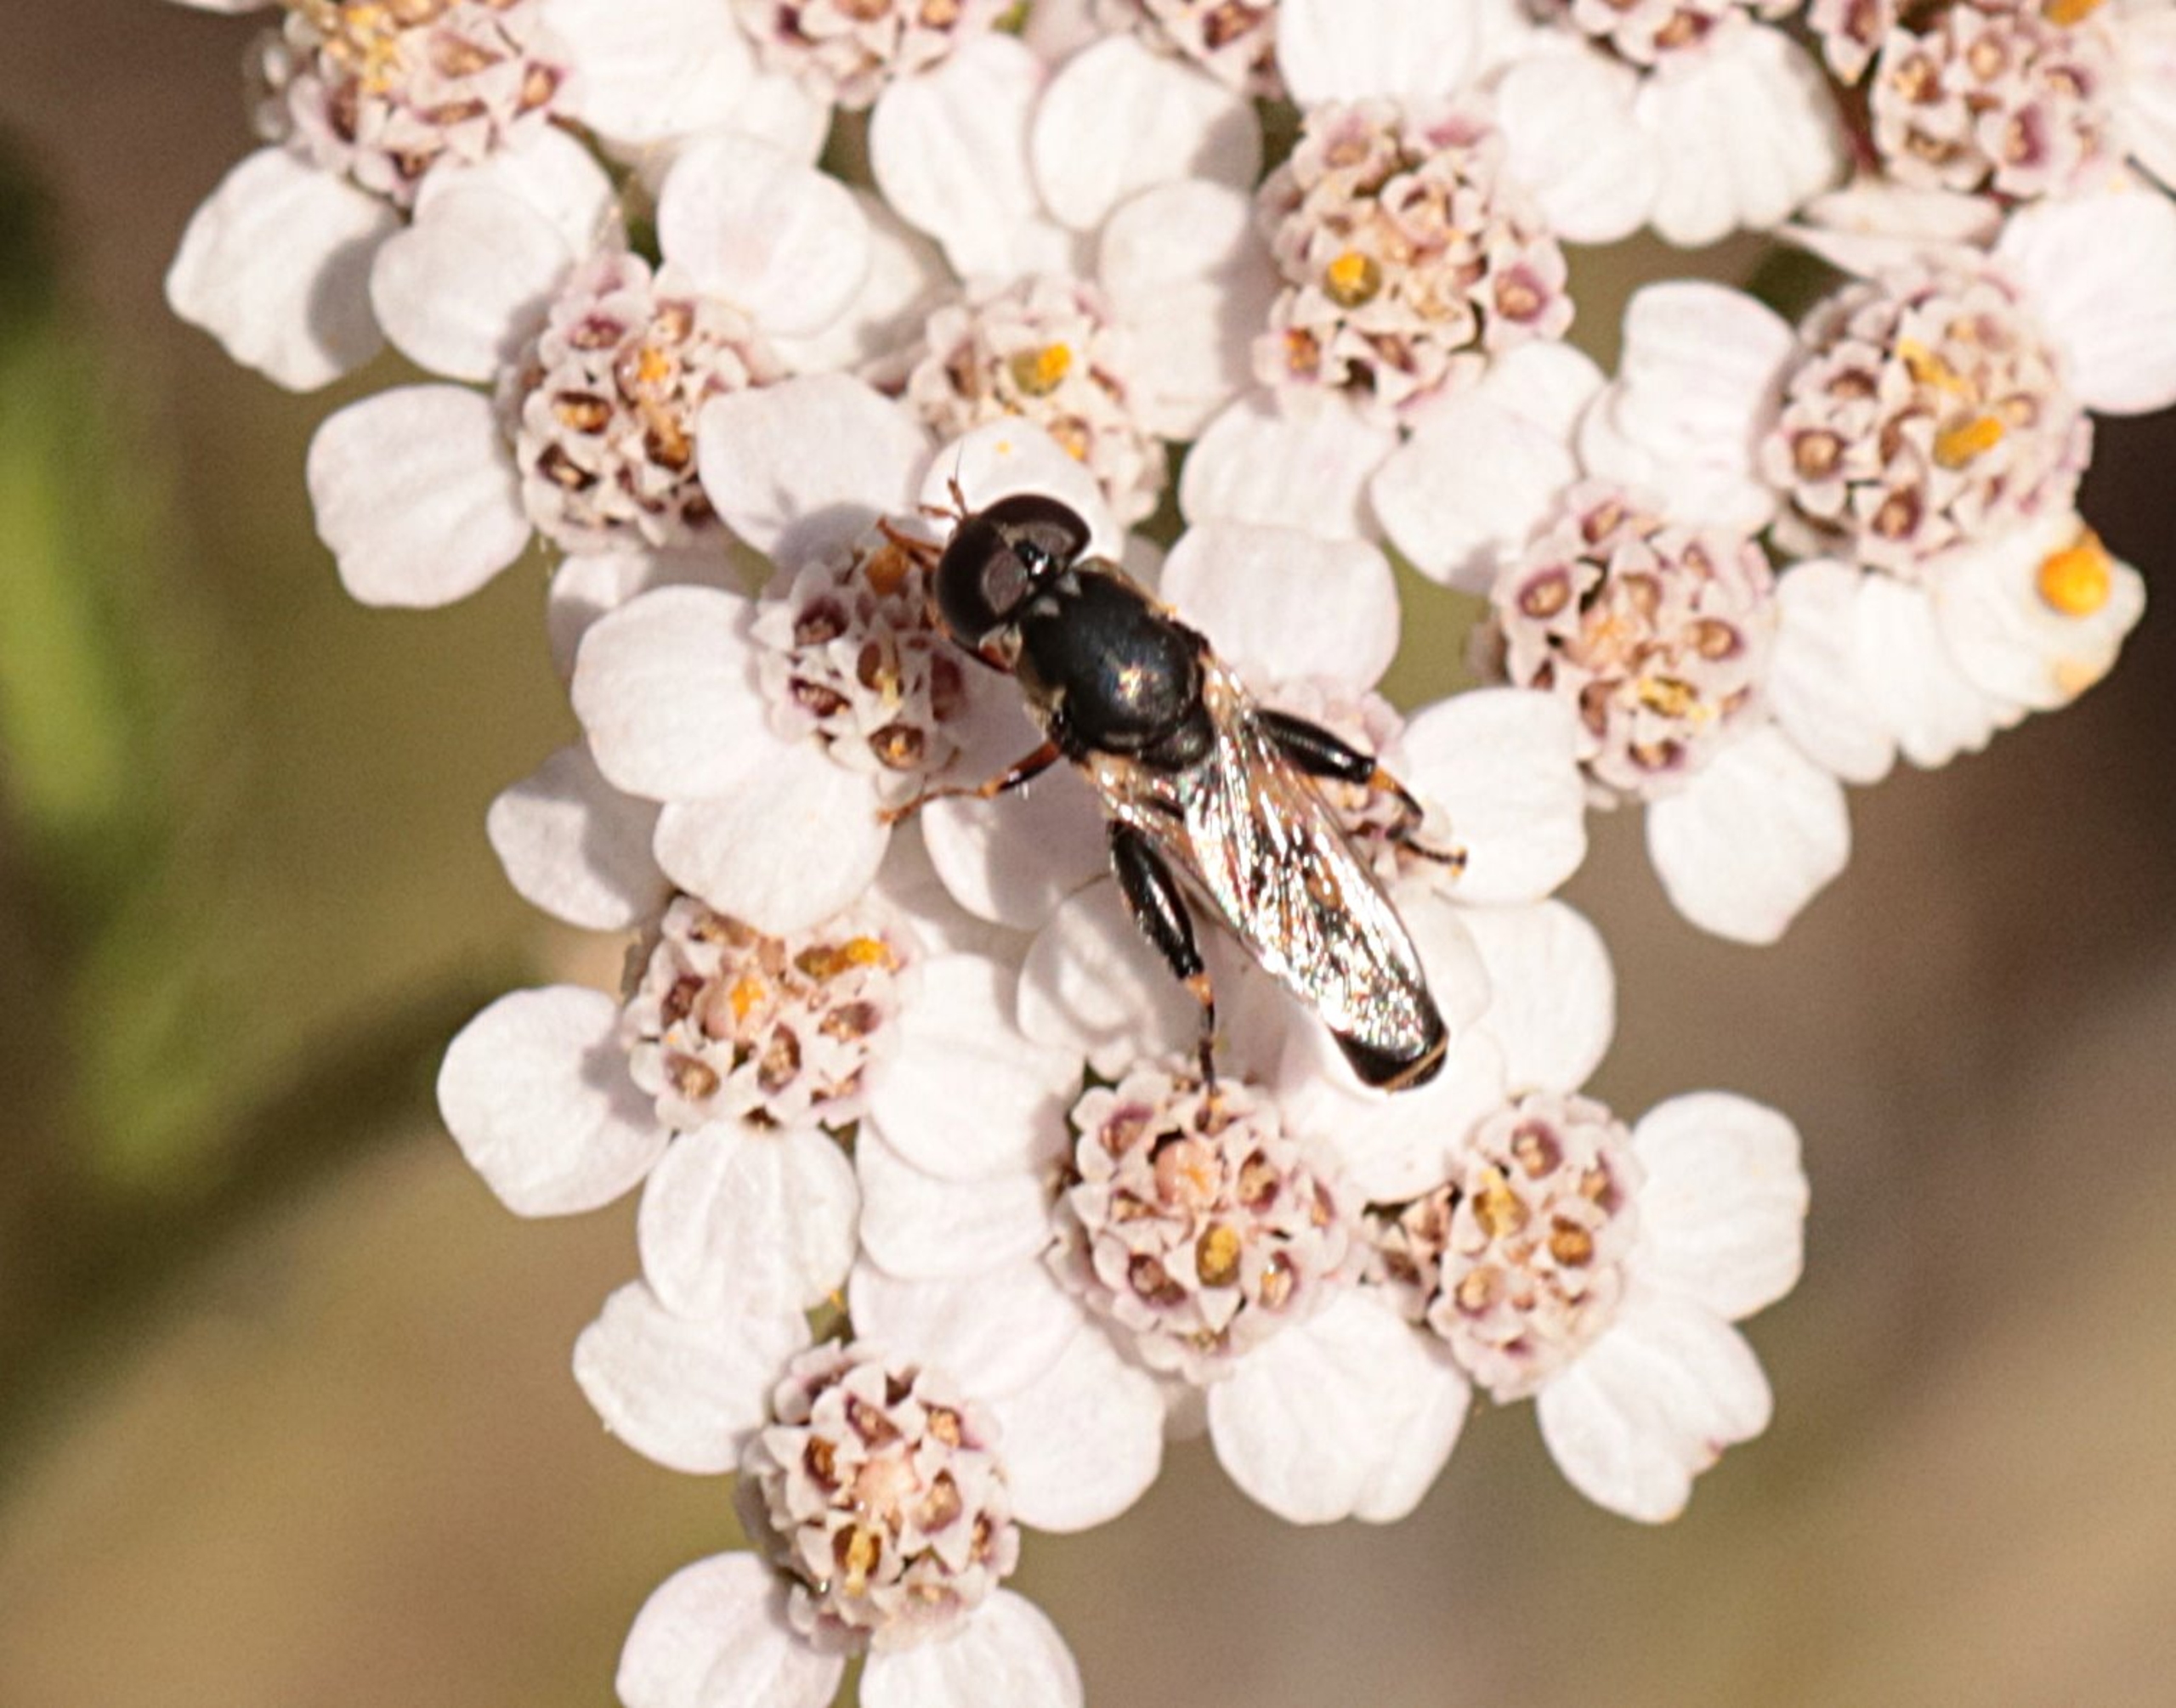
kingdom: Animalia
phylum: Arthropoda
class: Insecta
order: Diptera
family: Syrphidae
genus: Syritta
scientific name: Syritta pipiens
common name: Kompost-svirreflue
